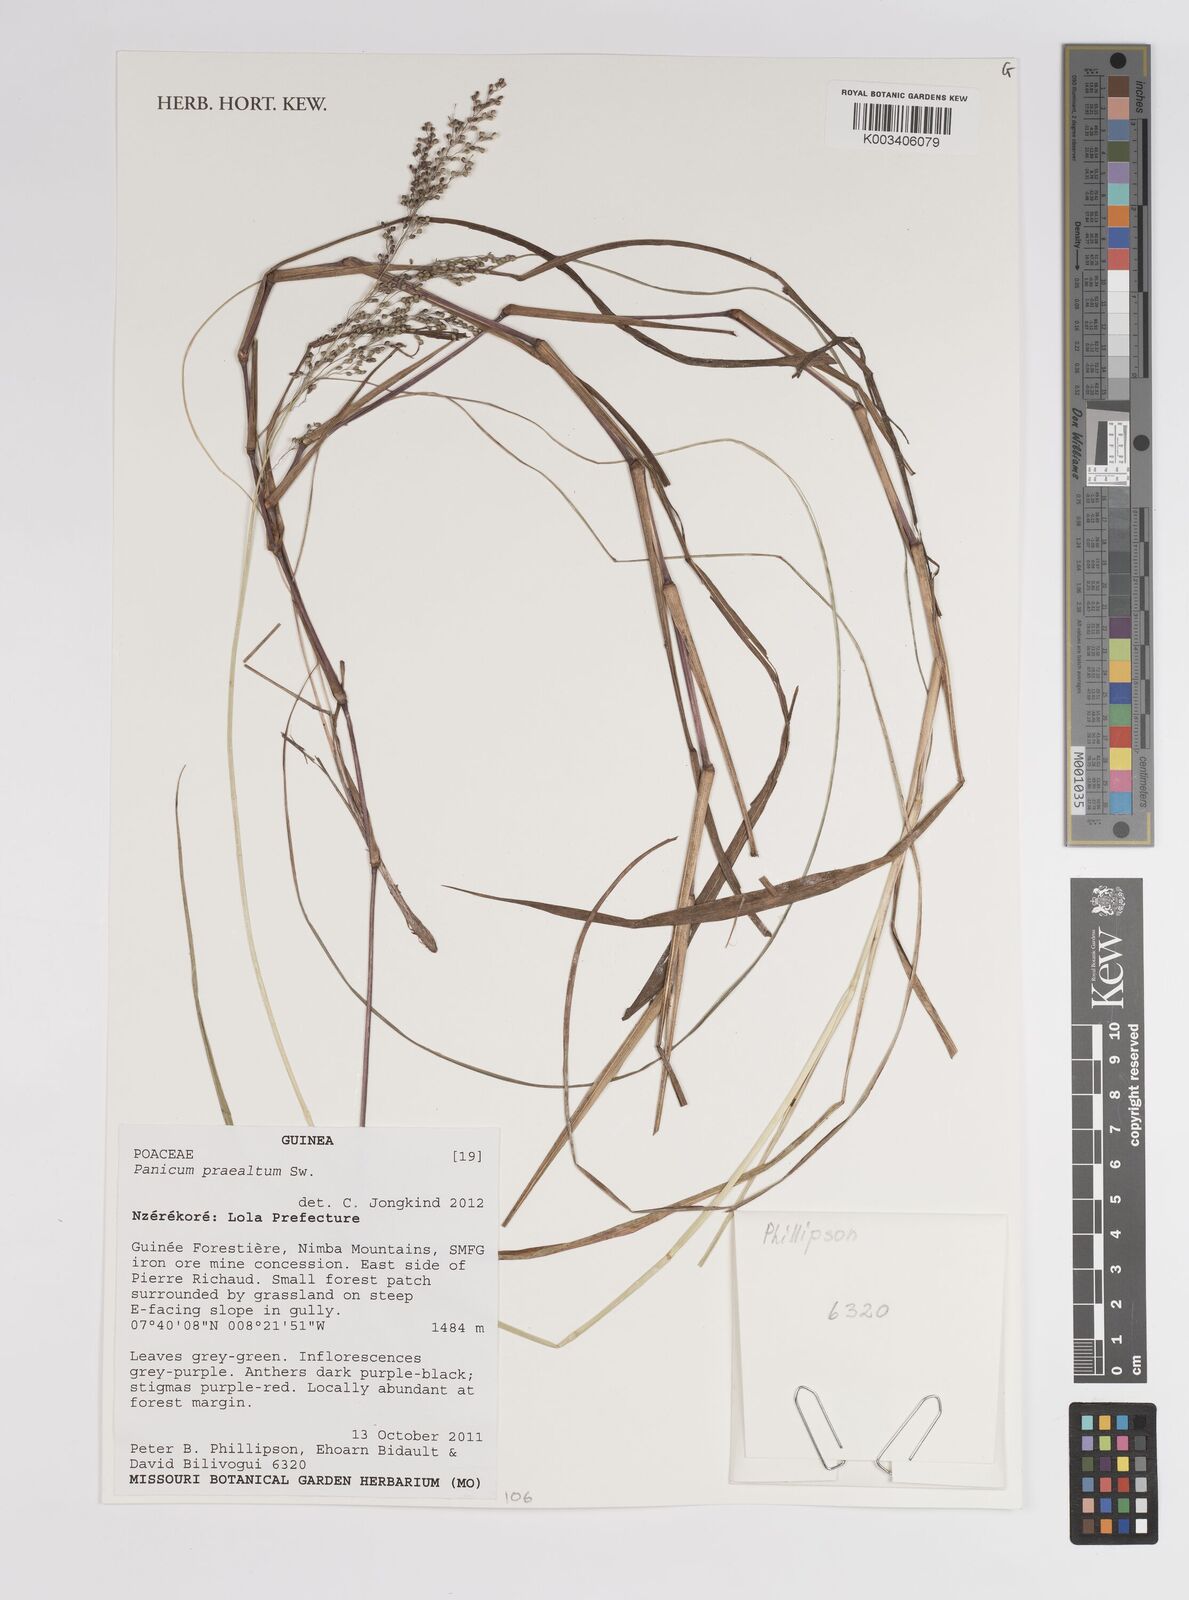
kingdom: Plantae
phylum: Tracheophyta
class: Liliopsida
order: Poales
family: Poaceae
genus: Trichanthecium
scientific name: Trichanthecium praealtum
